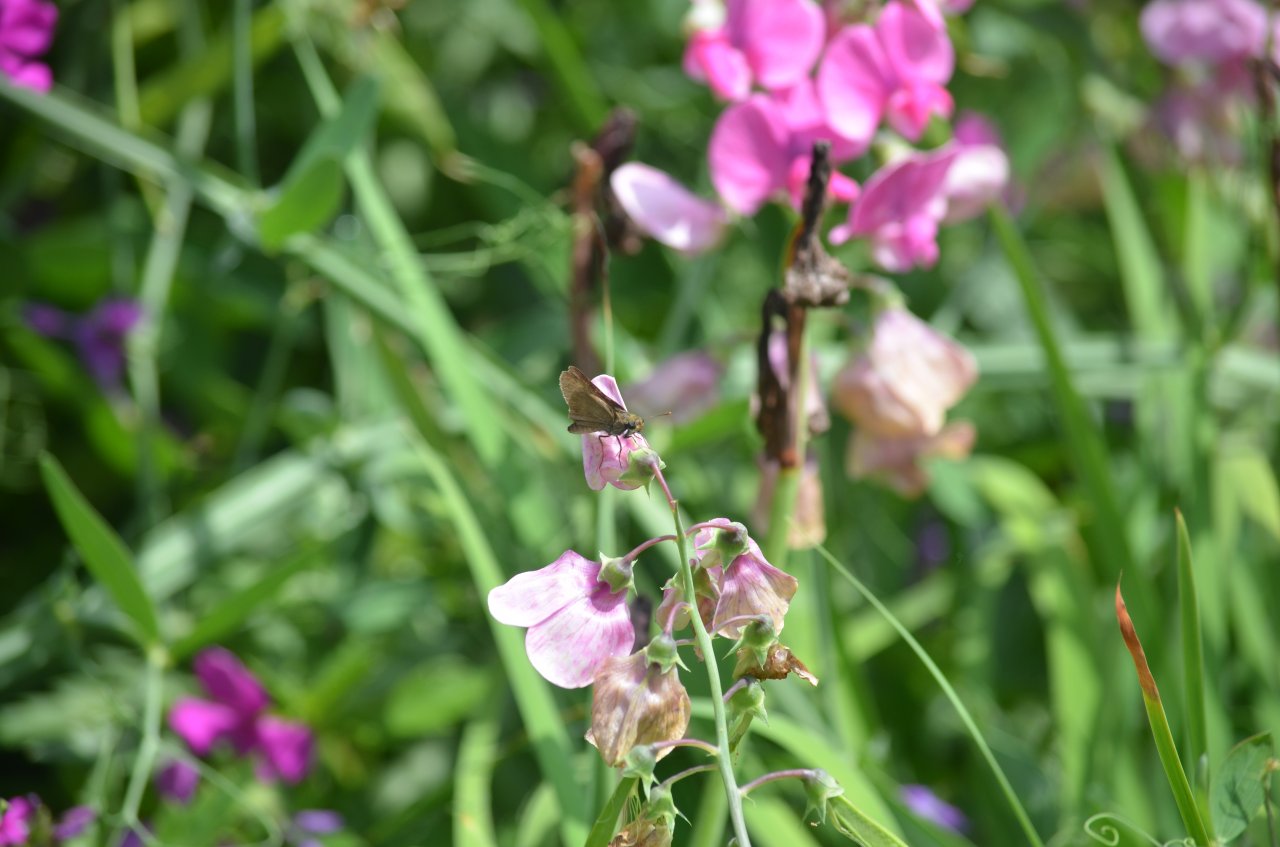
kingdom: Animalia
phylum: Arthropoda
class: Insecta
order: Lepidoptera
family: Hesperiidae
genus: Euphyes
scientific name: Euphyes vestris
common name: Dun Skipper
